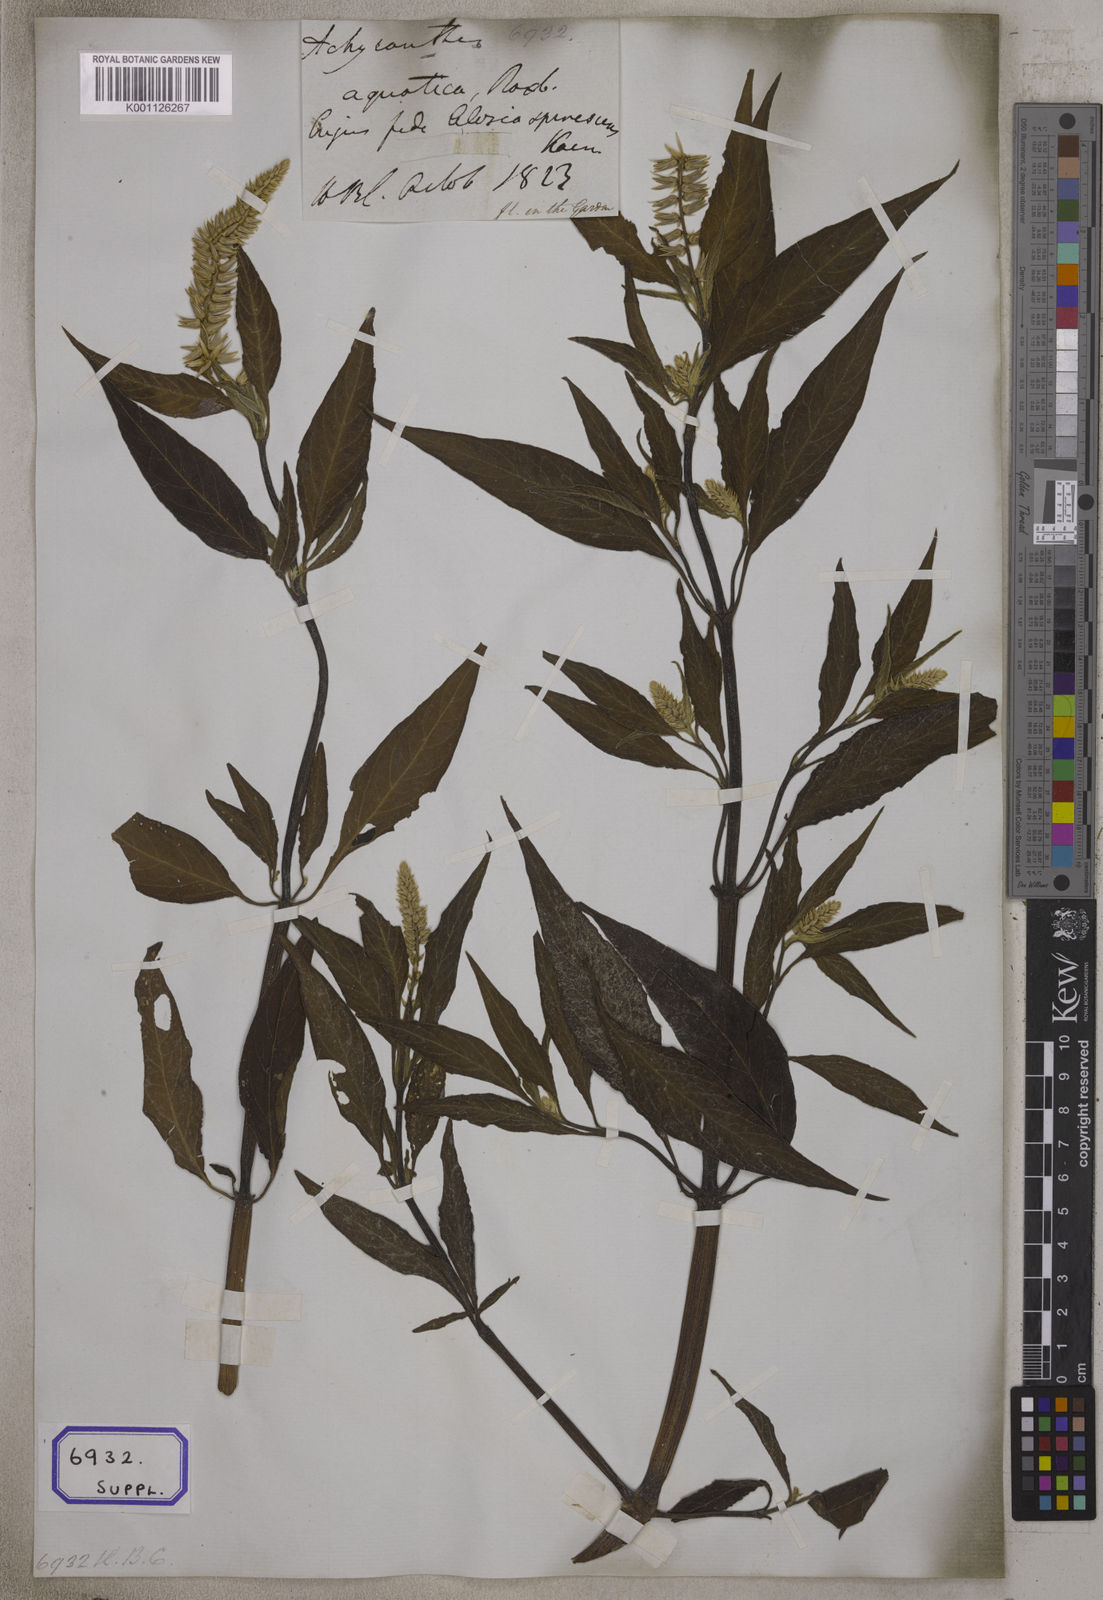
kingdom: Plantae
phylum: Tracheophyta
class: Magnoliopsida
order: Caryophyllales
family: Amaranthaceae
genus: Centrostachys
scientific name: Centrostachys
